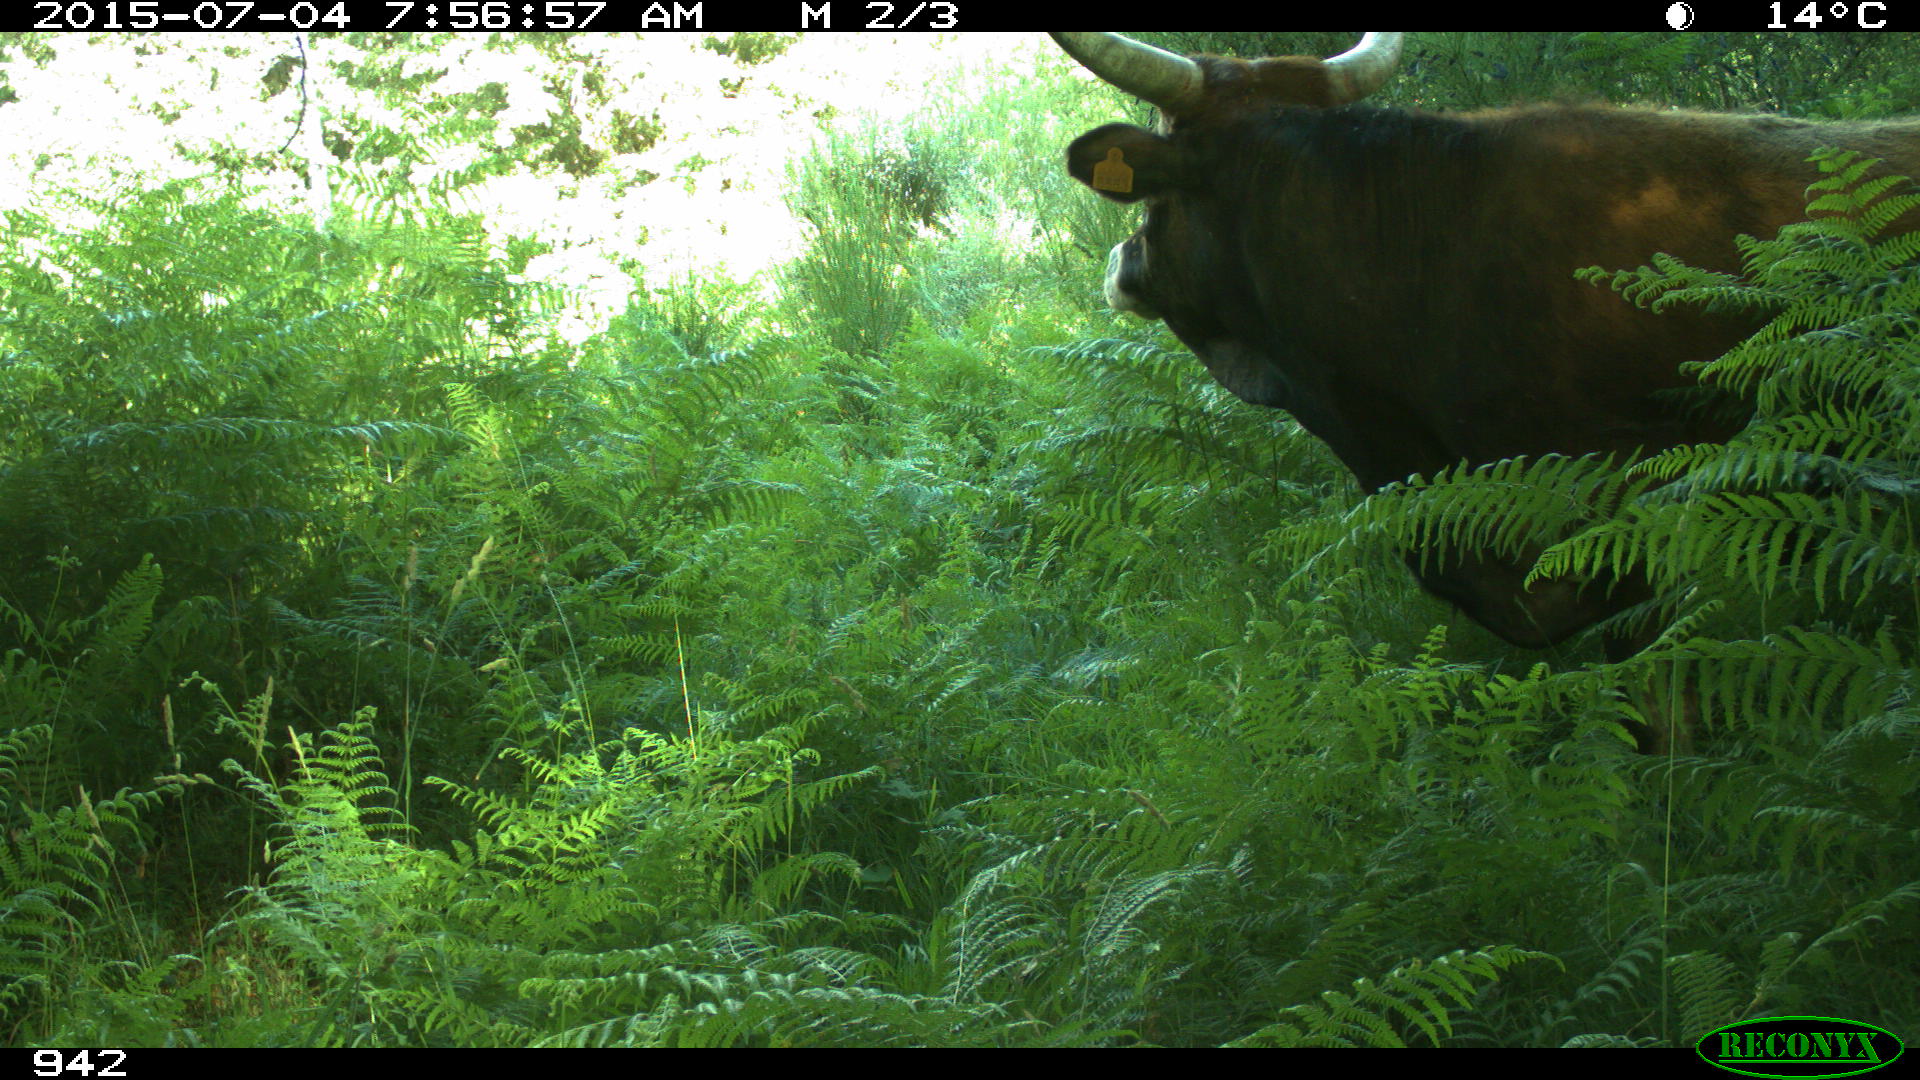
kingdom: Animalia
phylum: Chordata
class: Mammalia
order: Artiodactyla
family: Bovidae
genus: Bos
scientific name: Bos taurus
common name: Domesticated cattle
